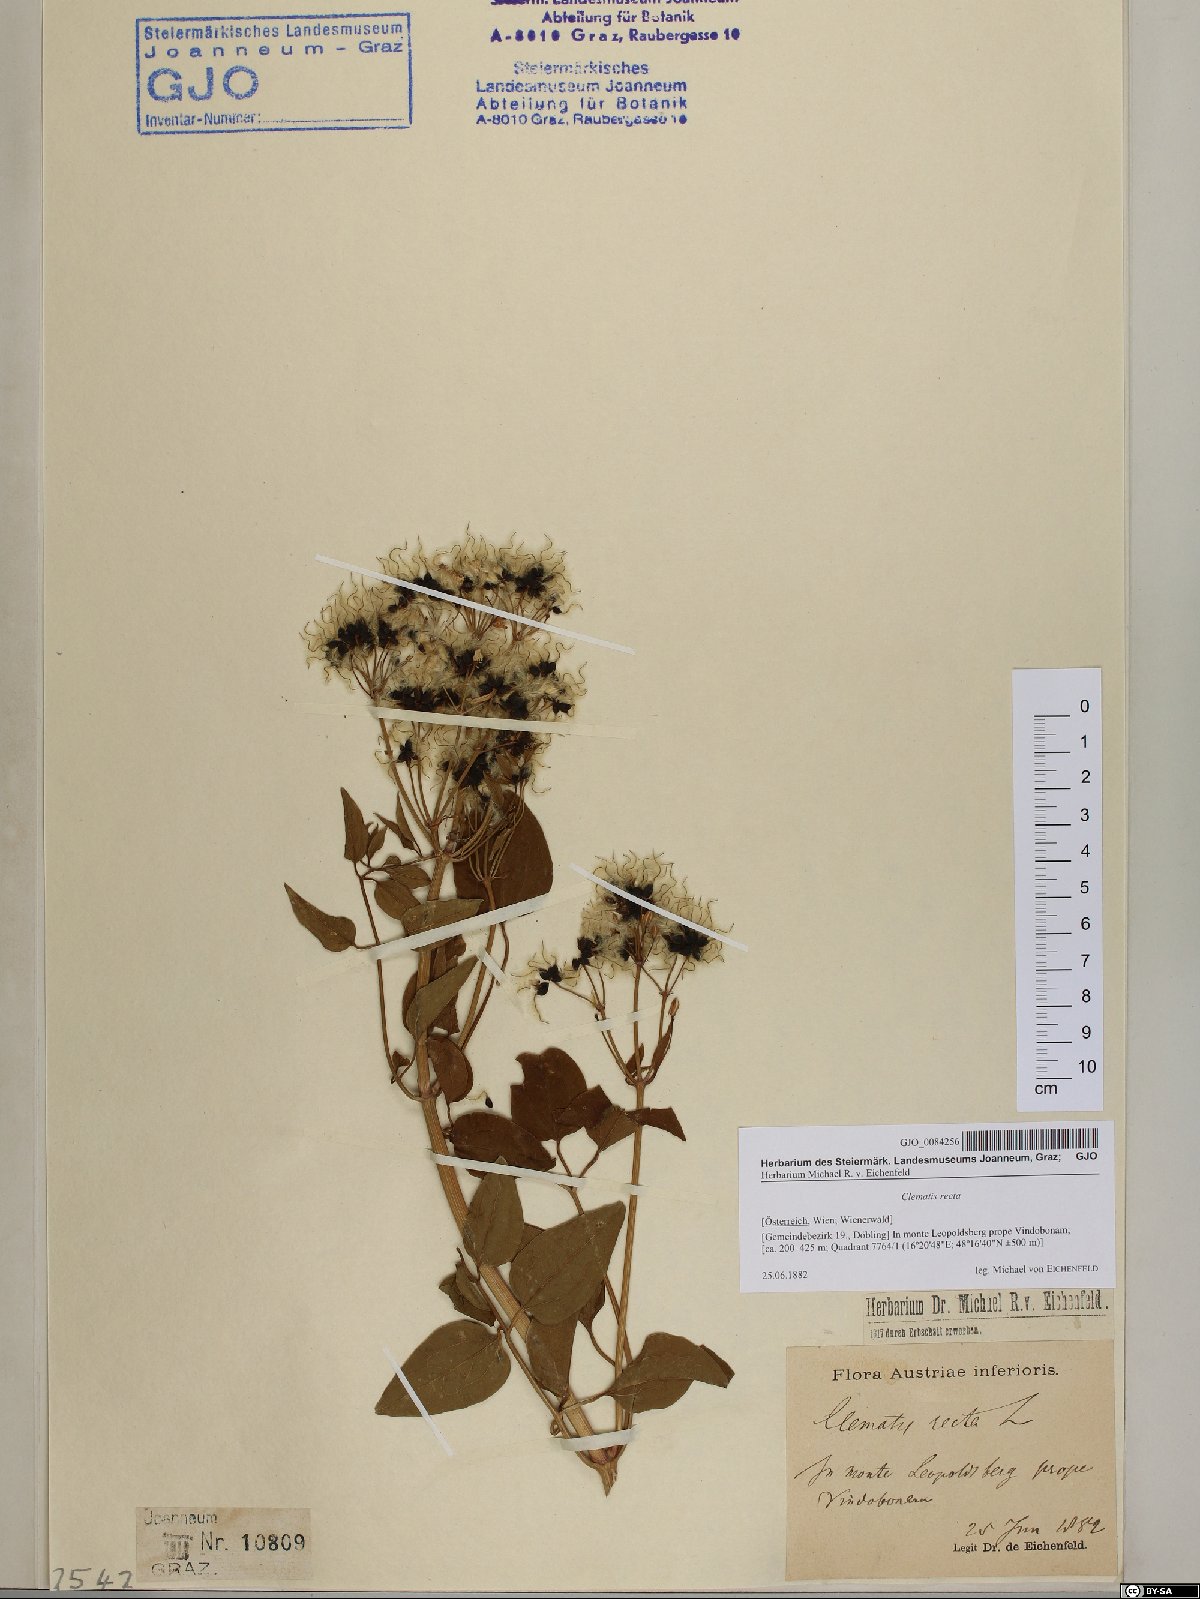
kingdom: Plantae
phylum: Tracheophyta
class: Magnoliopsida
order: Ranunculales
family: Ranunculaceae
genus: Clematis
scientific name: Clematis recta
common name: Ground clematis
